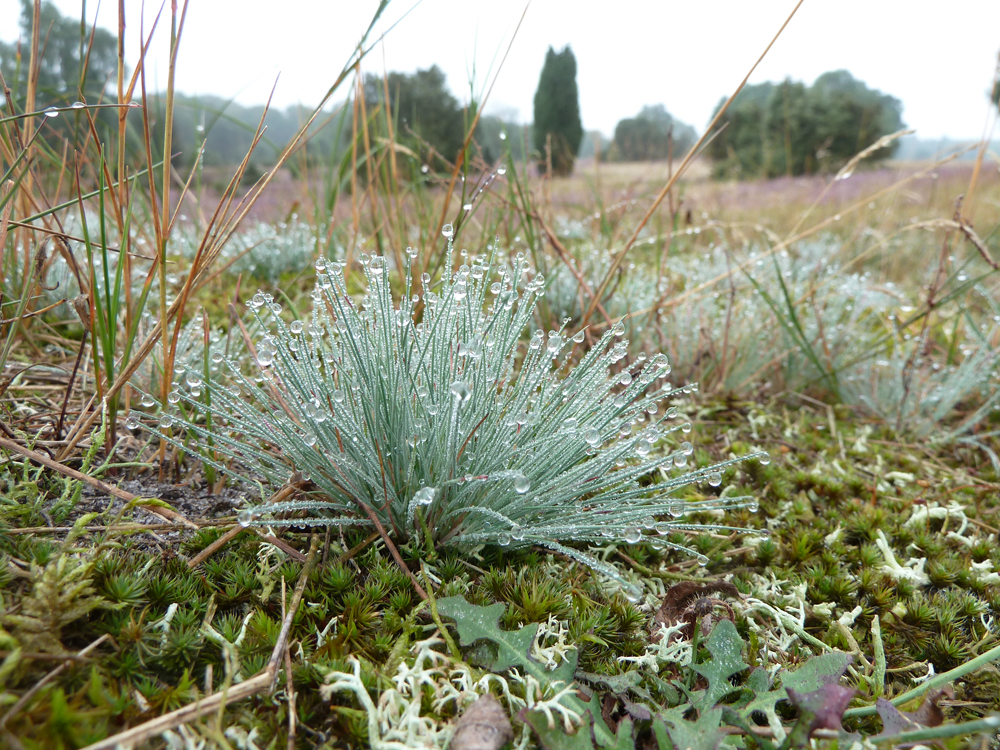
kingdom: Plantae
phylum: Tracheophyta
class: Liliopsida
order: Poales
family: Poaceae
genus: Corynephorus
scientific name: Corynephorus canescens
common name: Grey hair-grass
